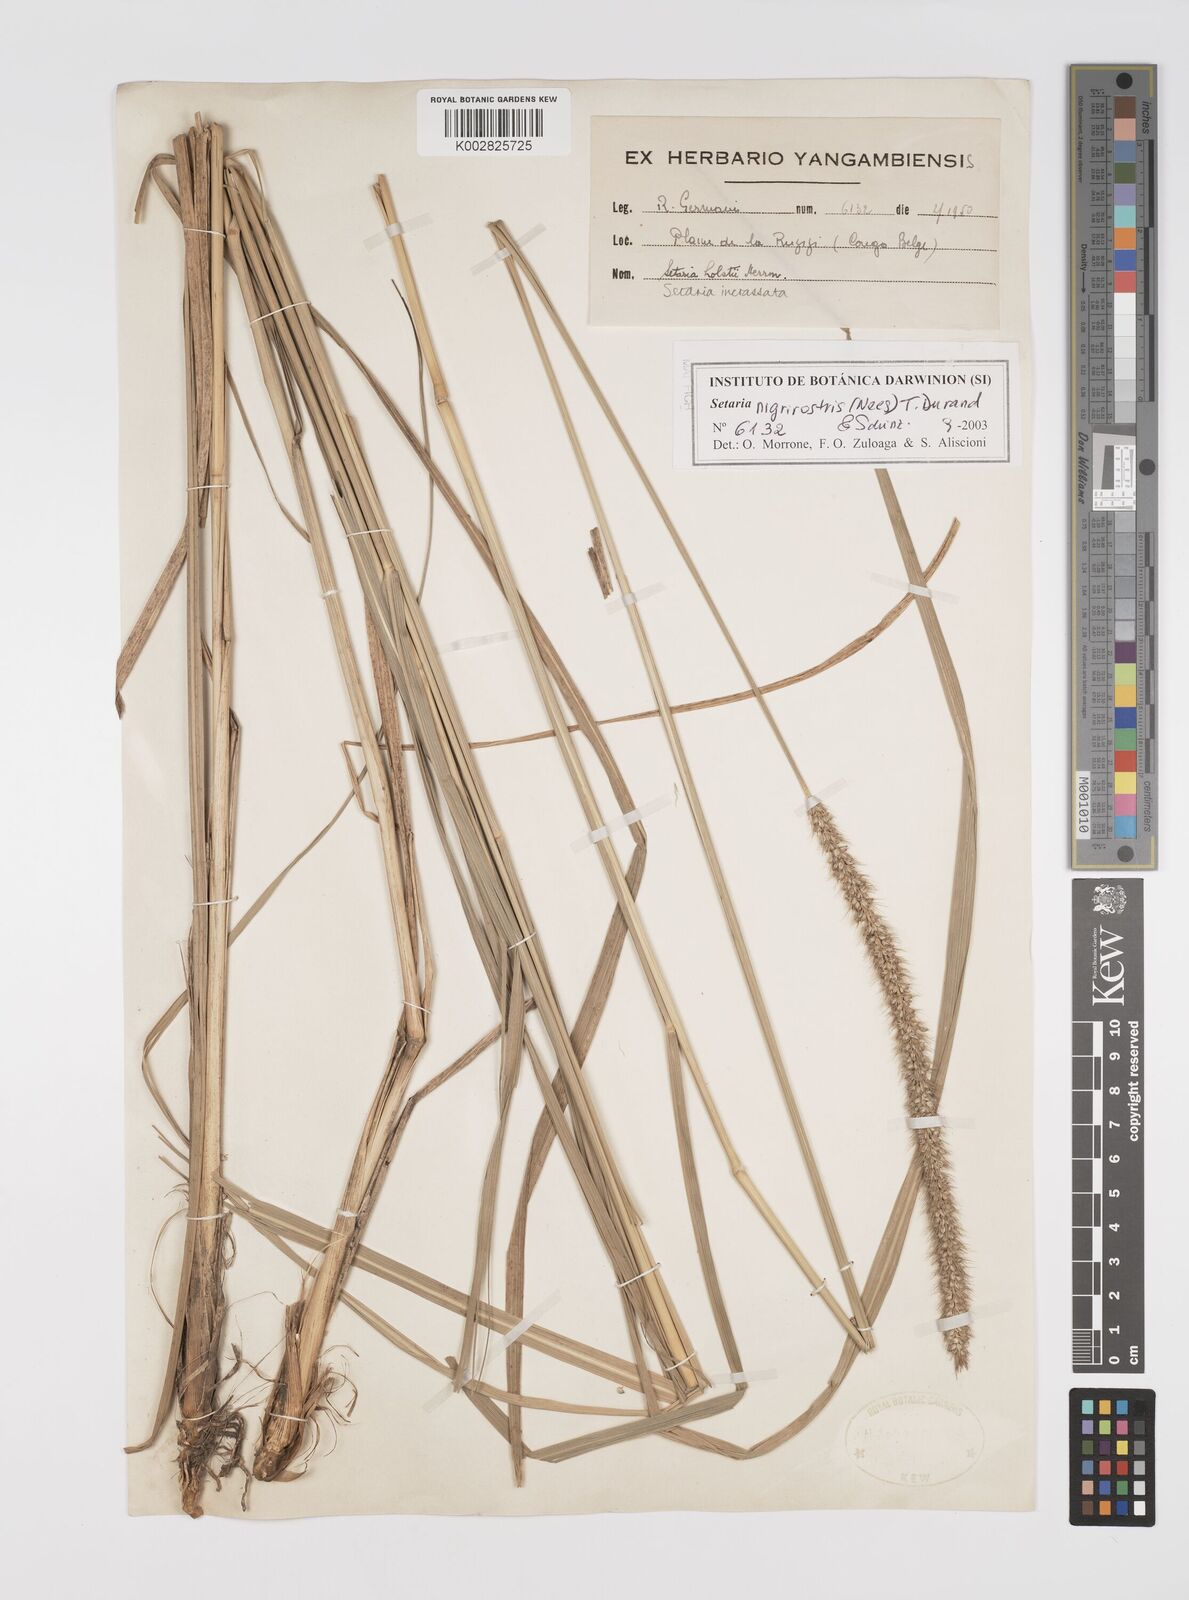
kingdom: Plantae
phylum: Tracheophyta
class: Liliopsida
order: Poales
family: Poaceae
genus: Setaria
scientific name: Setaria nigrirostris
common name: Black bristlegrass
